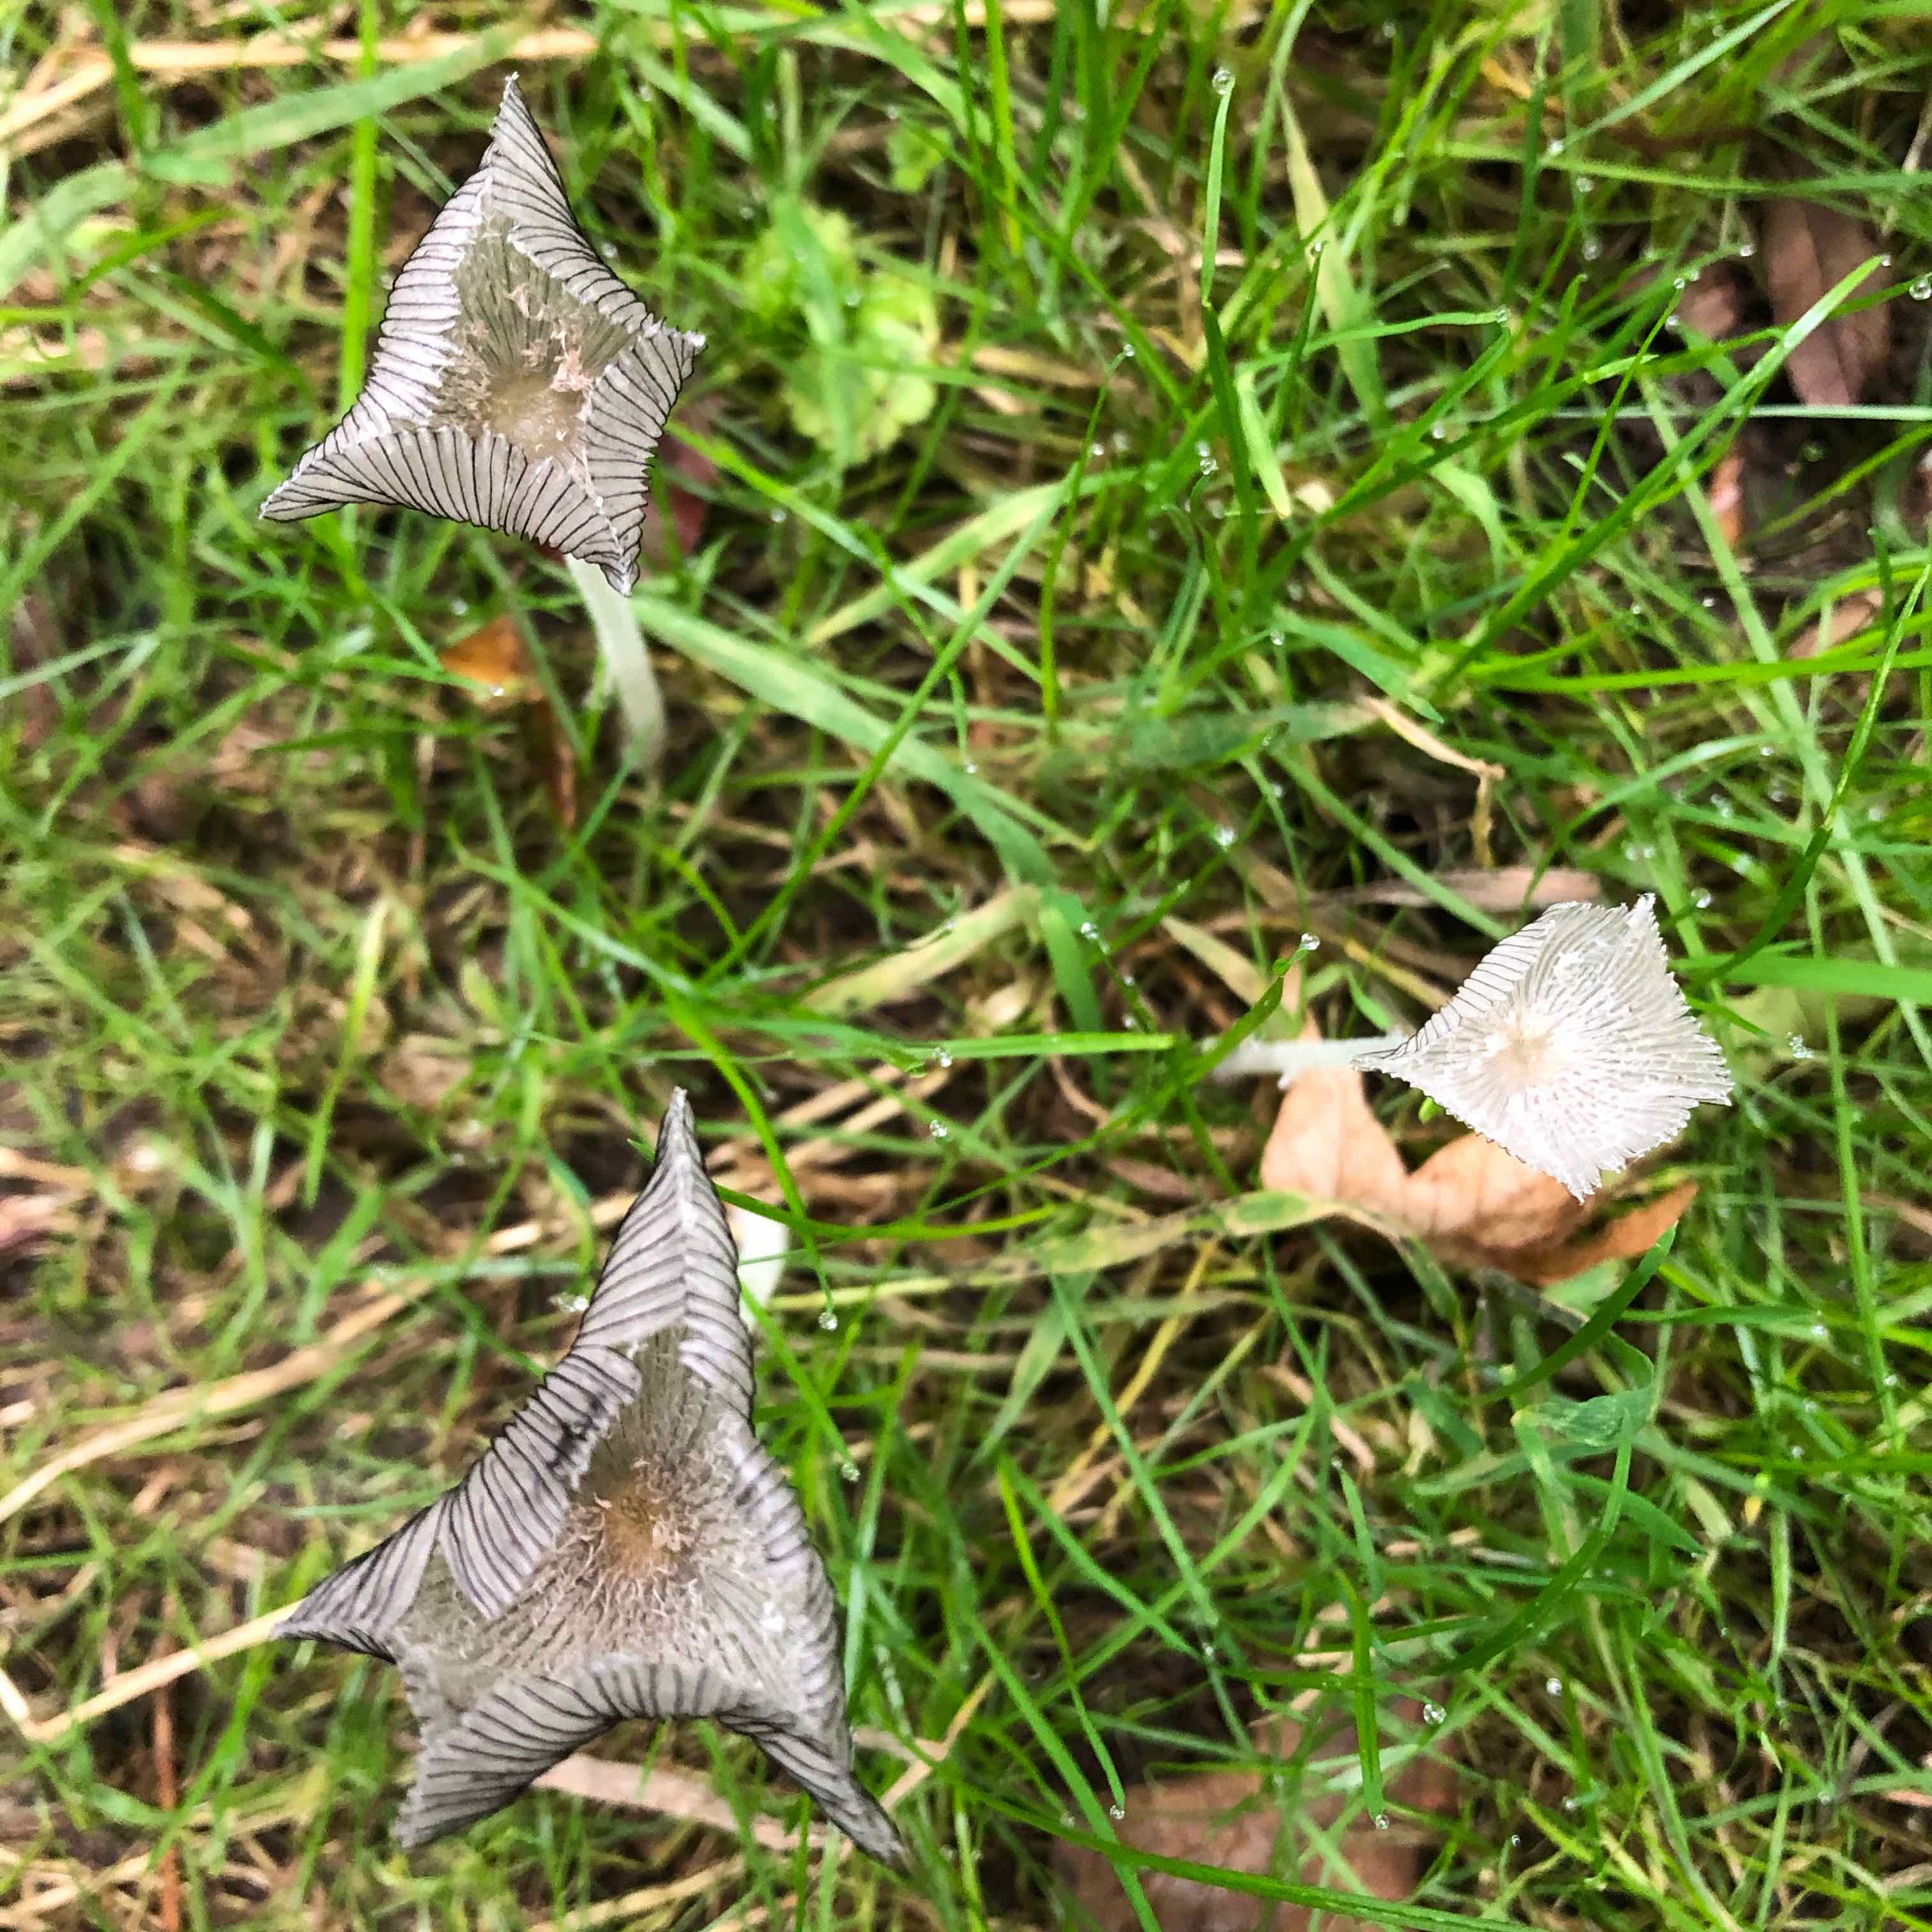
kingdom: Fungi
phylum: Basidiomycota
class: Agaricomycetes
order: Agaricales
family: Psathyrellaceae
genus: Coprinopsis
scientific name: Coprinopsis lagopus
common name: dunstokket blækhat
